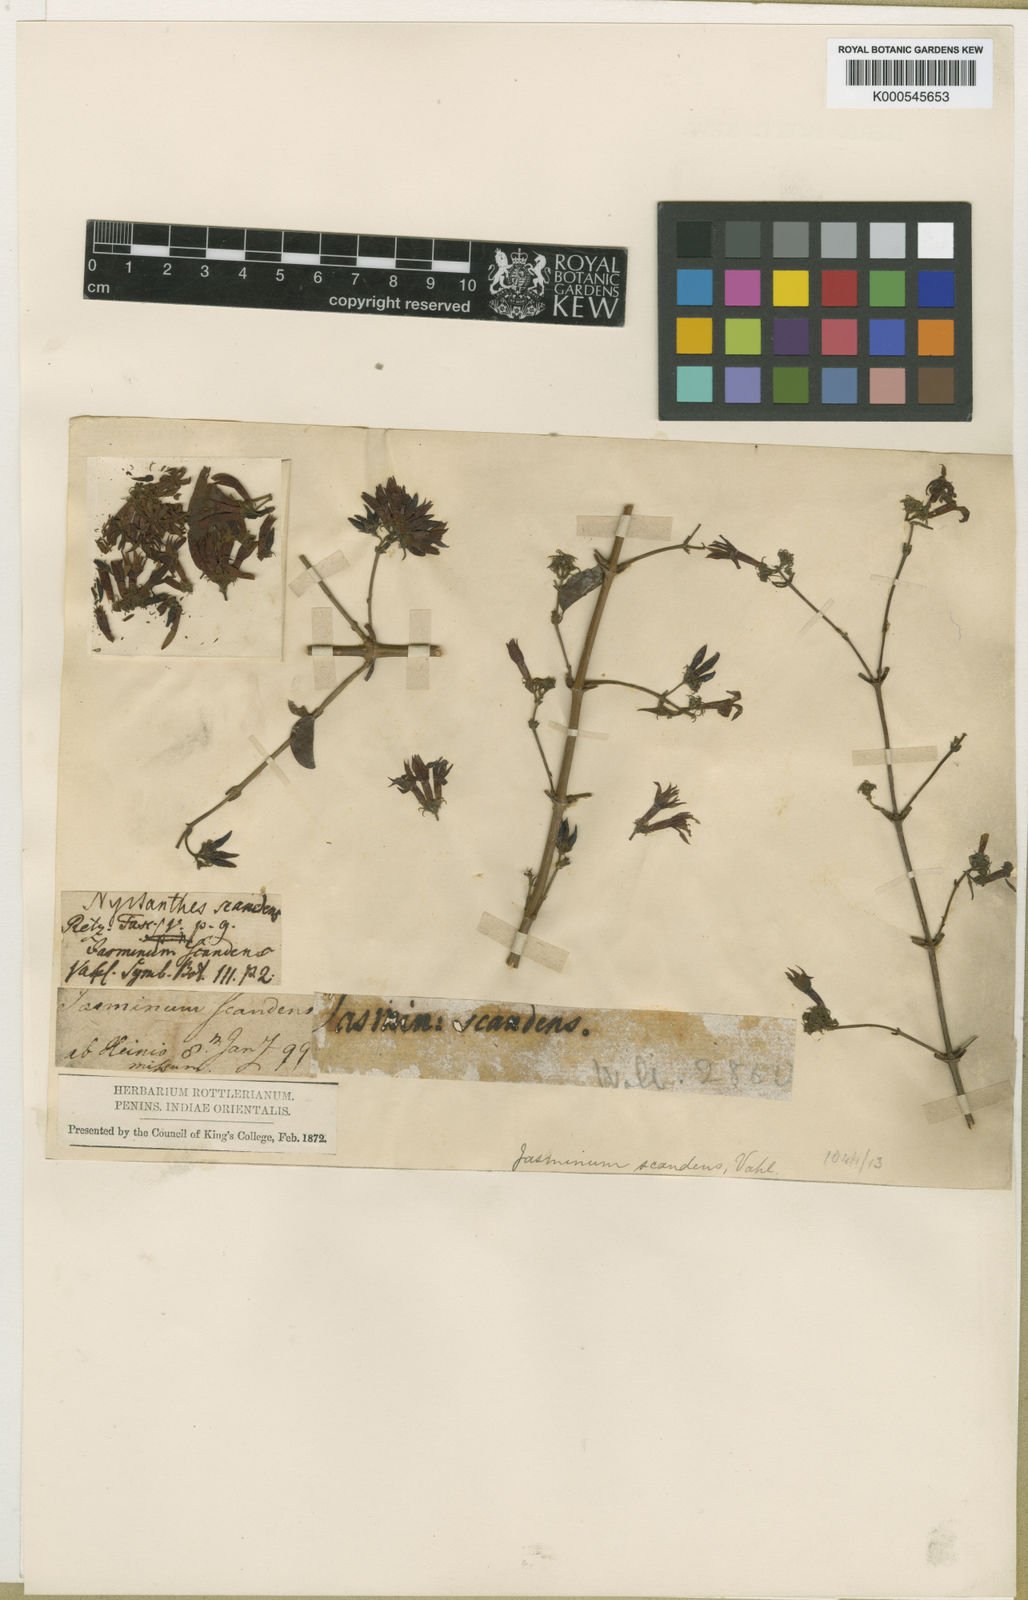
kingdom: Plantae
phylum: Tracheophyta
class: Magnoliopsida
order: Lamiales
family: Oleaceae
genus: Jasminum
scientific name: Jasminum scandens
